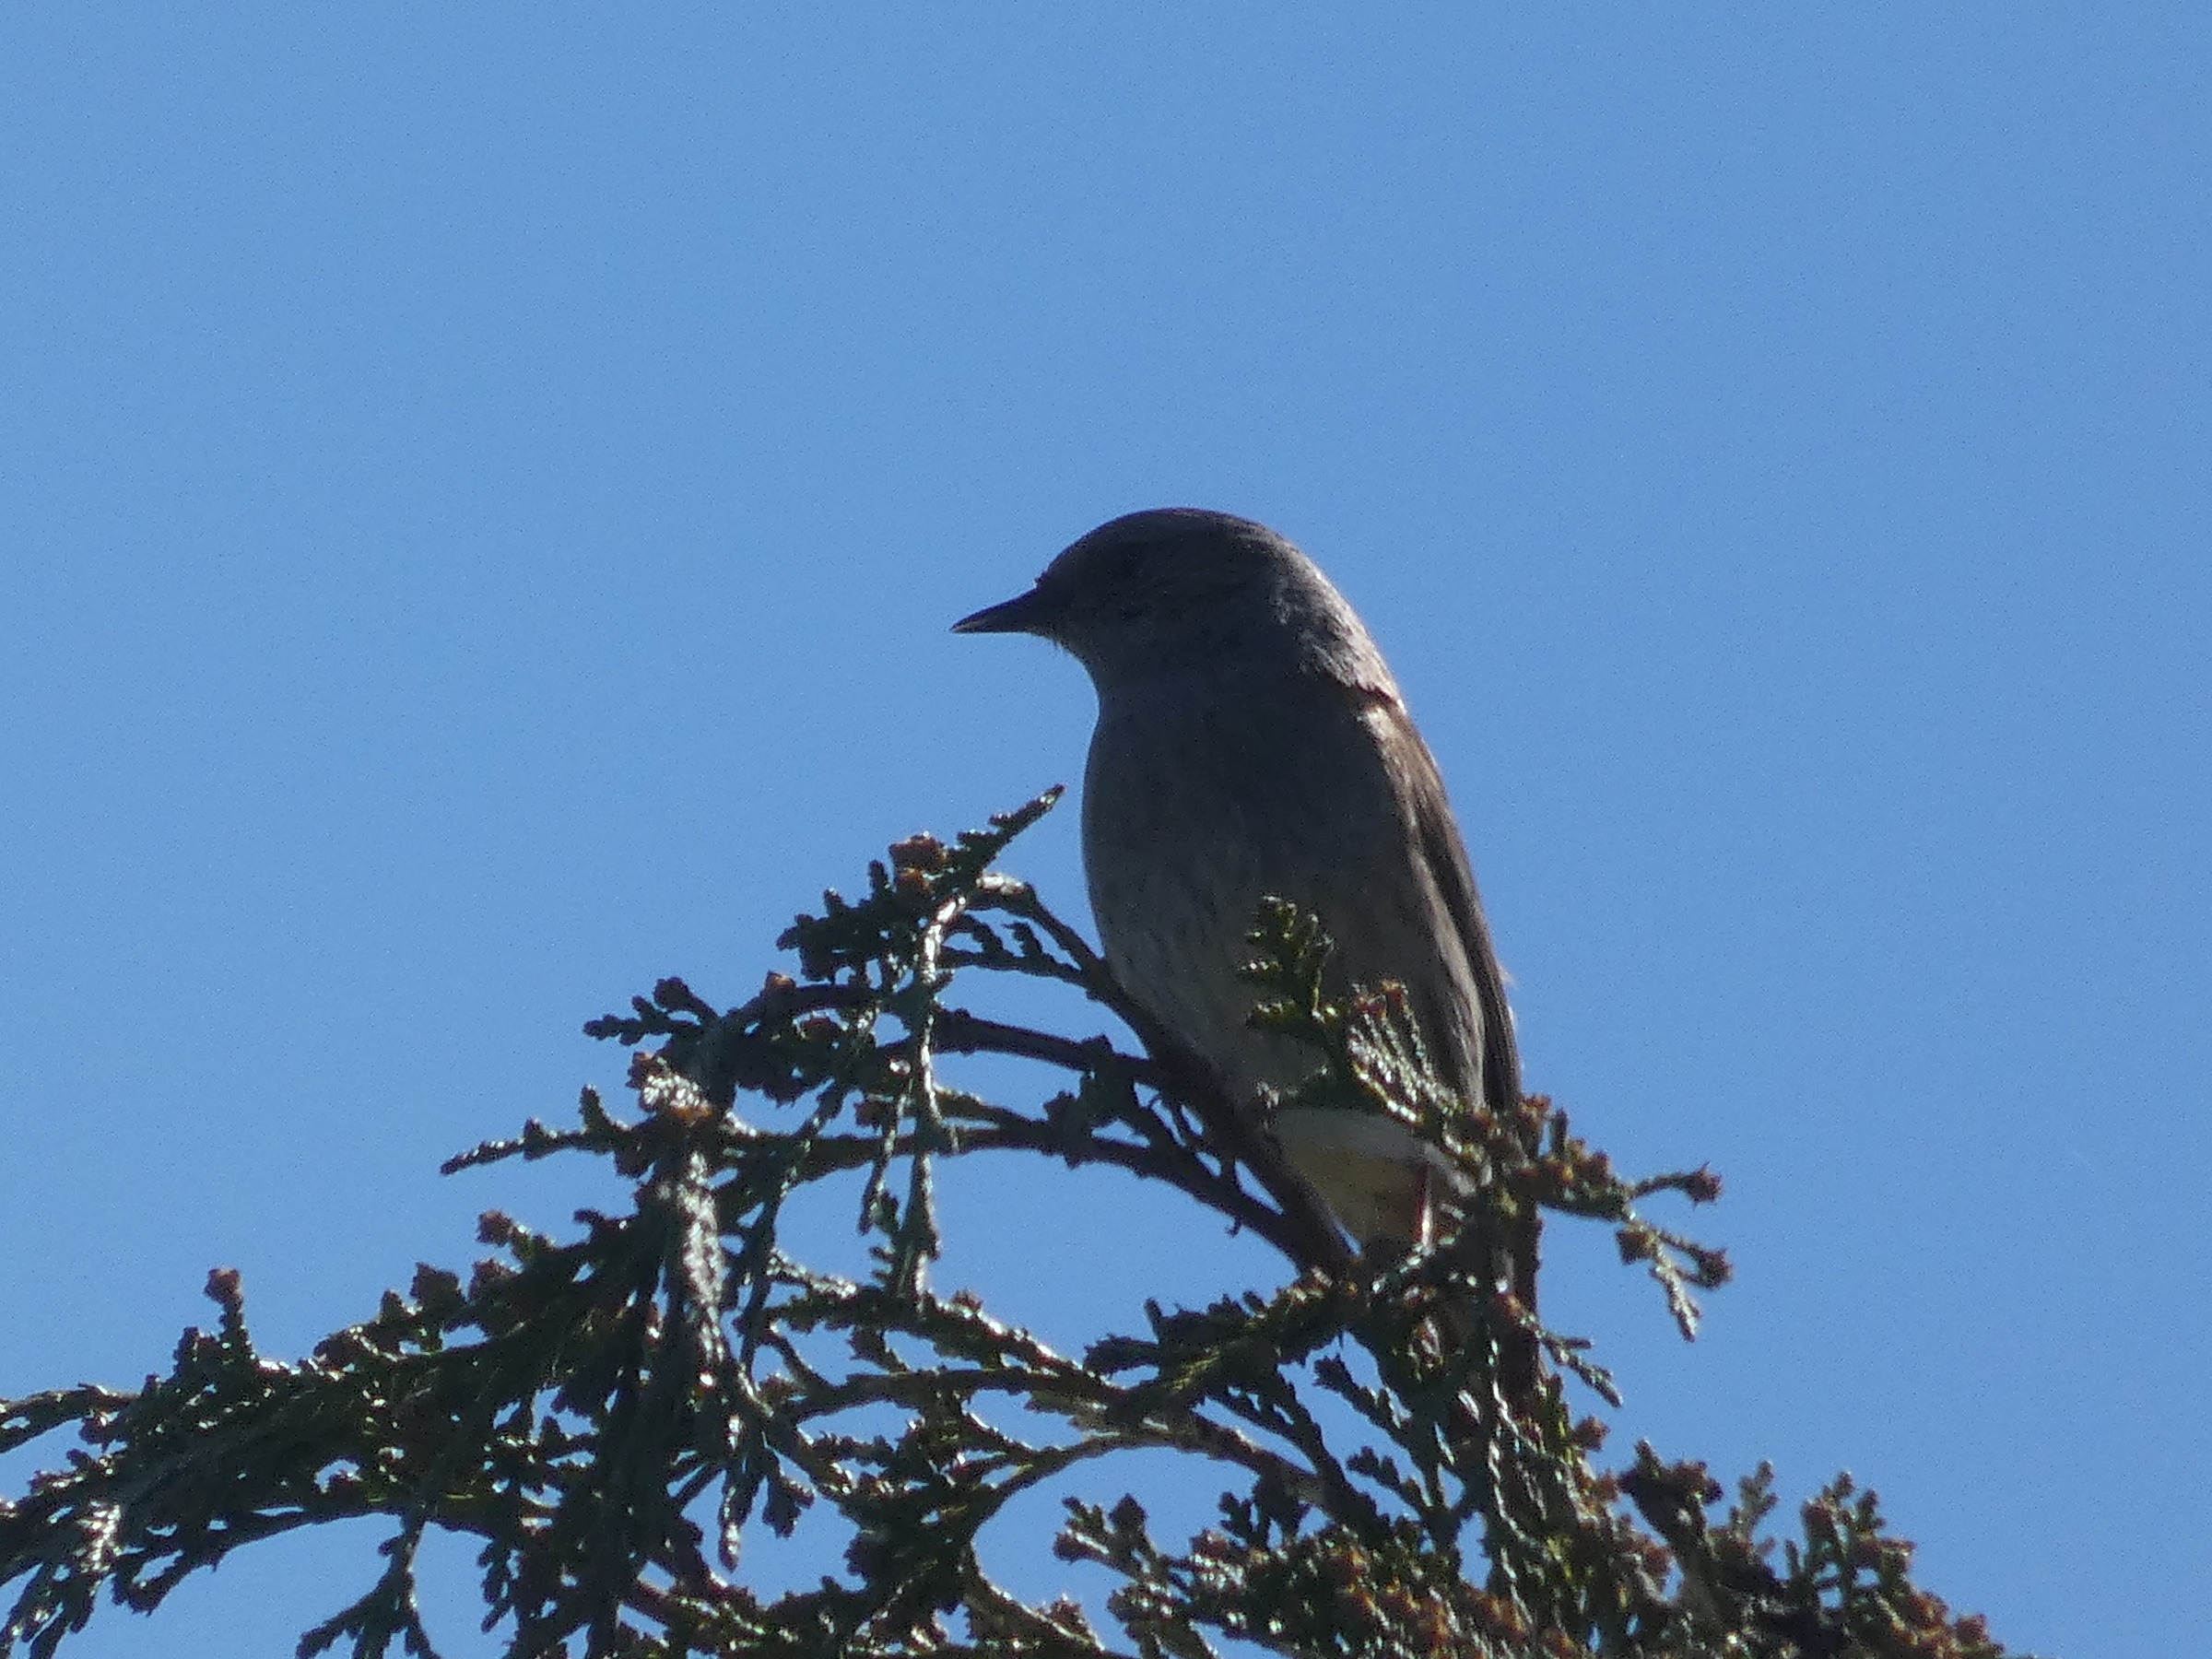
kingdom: Animalia
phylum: Chordata
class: Aves
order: Passeriformes
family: Prunellidae
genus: Prunella
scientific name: Prunella modularis
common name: Jernspurv
